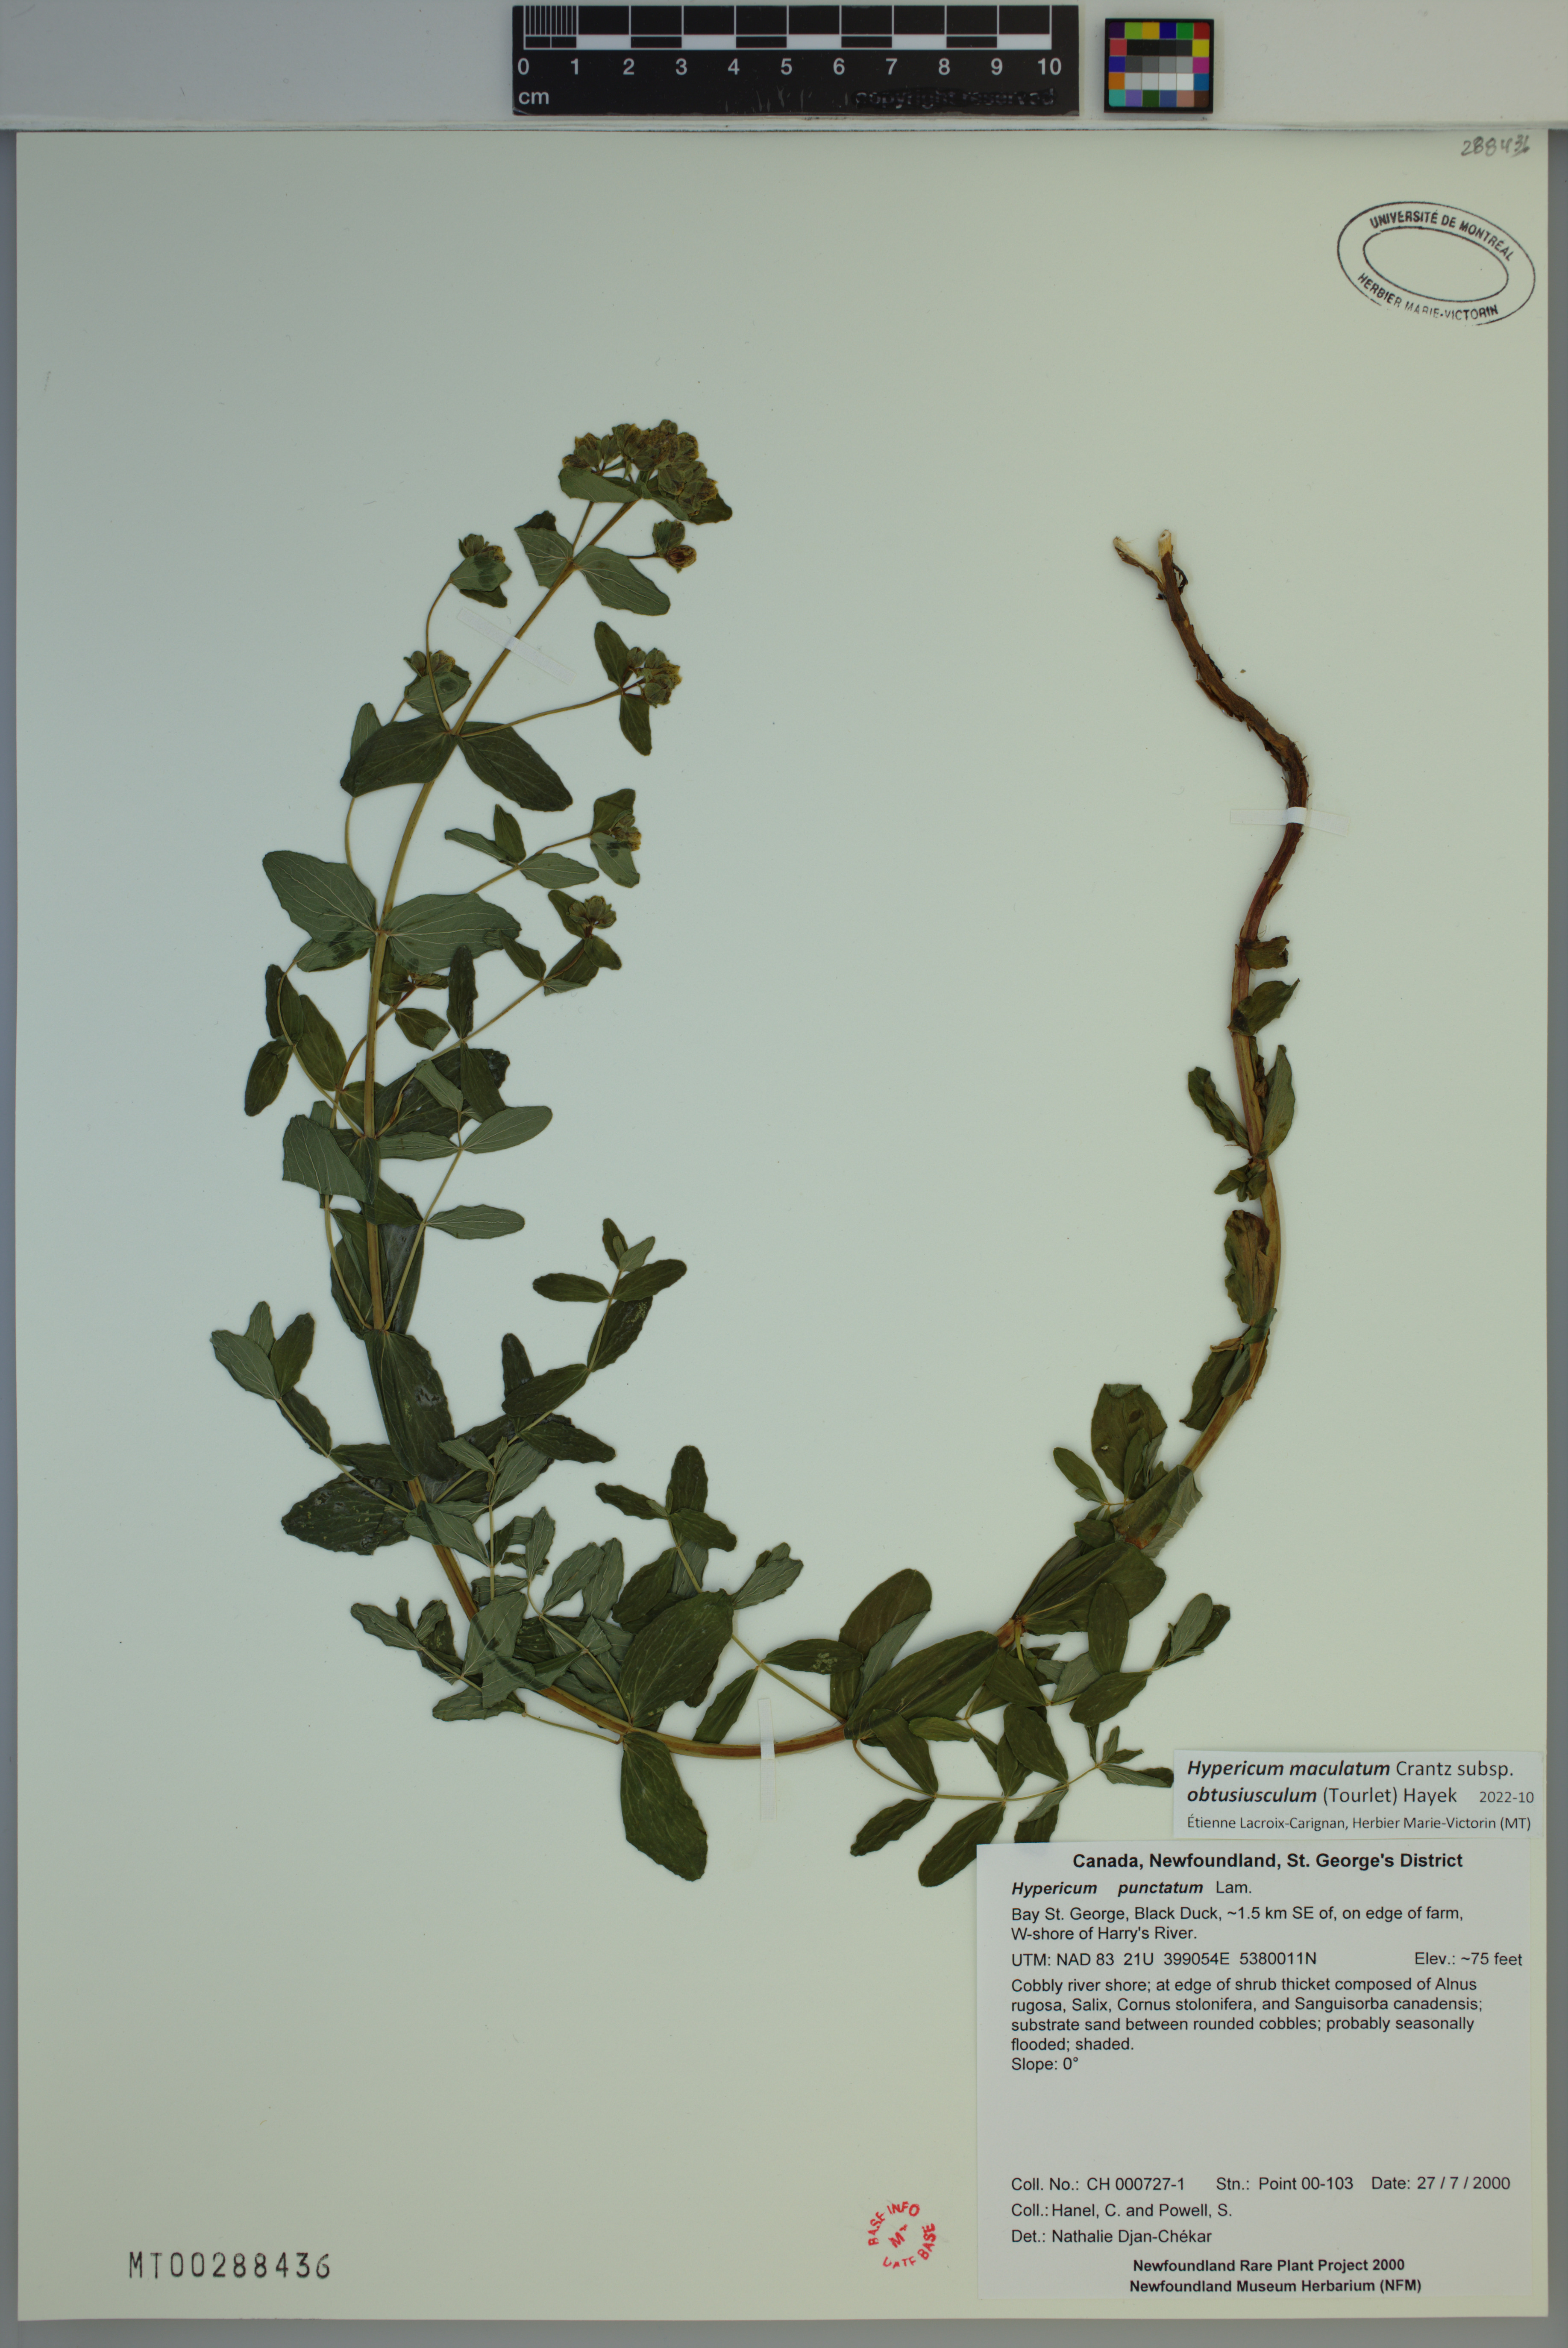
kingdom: Plantae
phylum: Tracheophyta
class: Magnoliopsida
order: Malpighiales
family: Hypericaceae
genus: Hypericum
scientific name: Hypericum dubium
